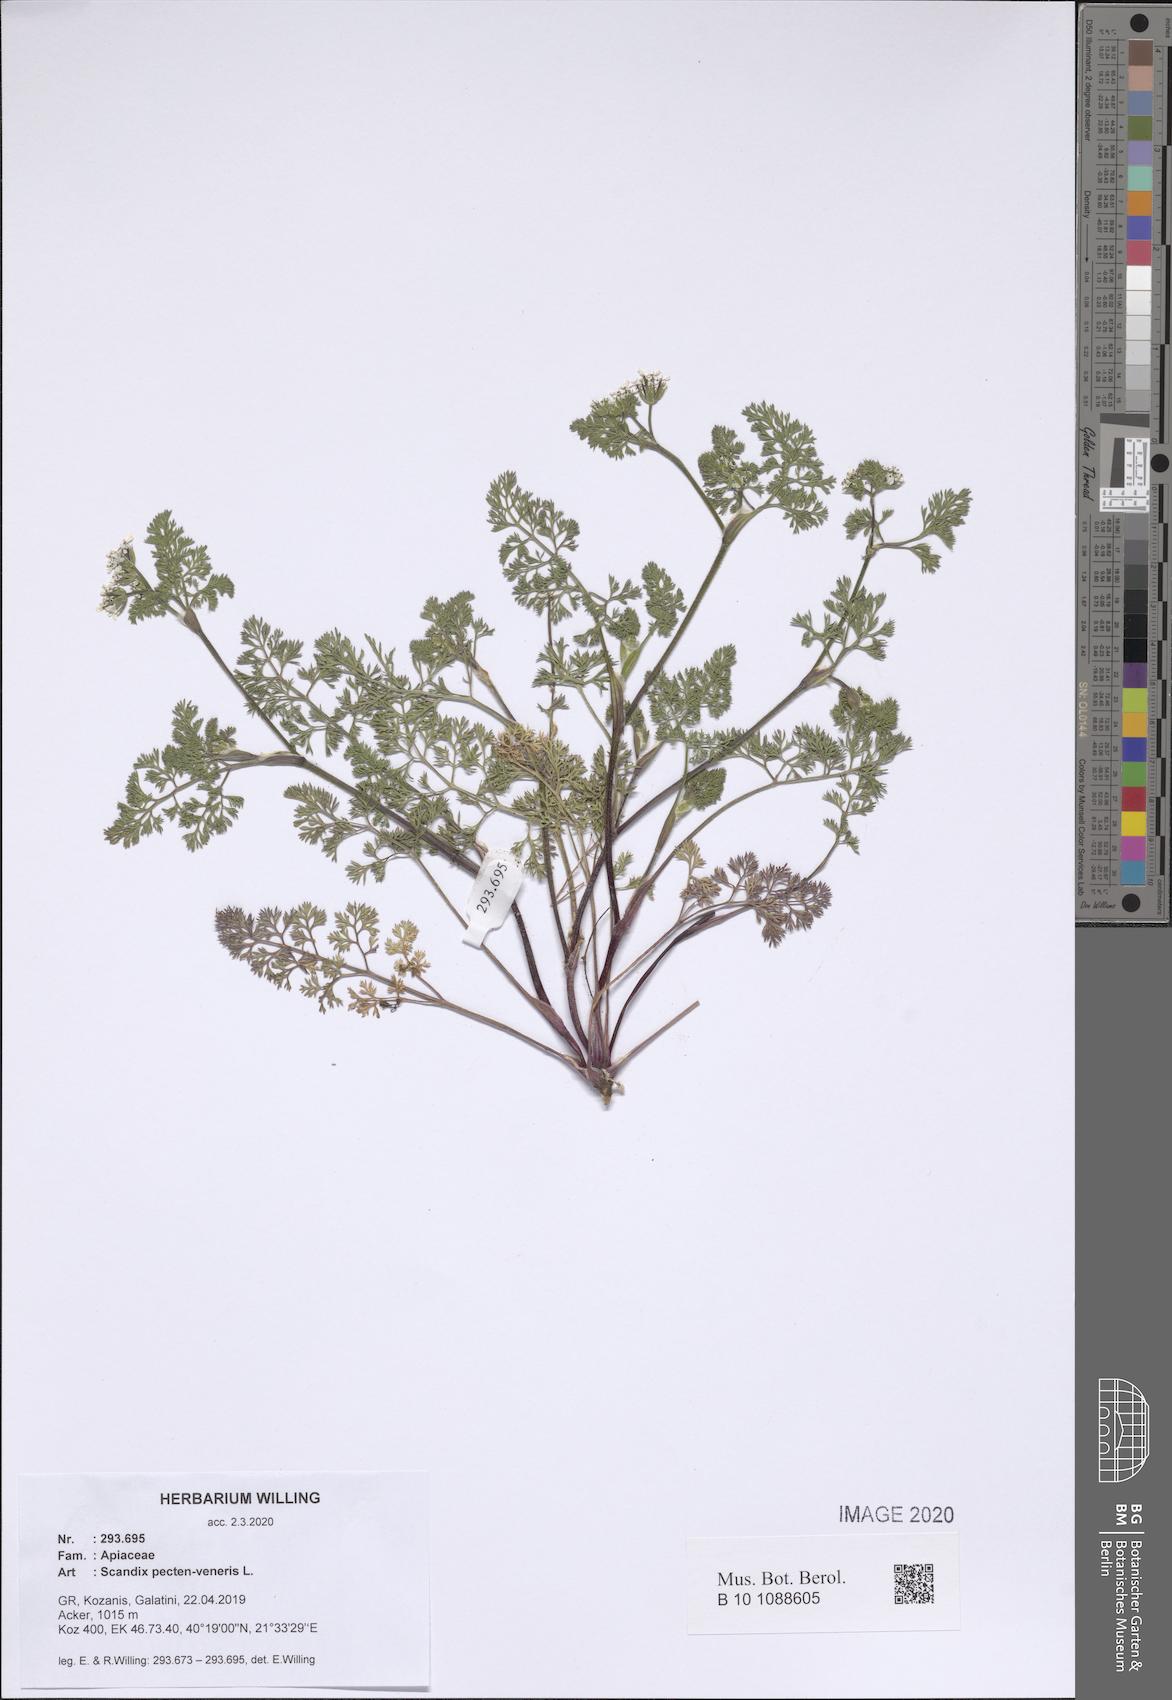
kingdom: Plantae
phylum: Tracheophyta
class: Magnoliopsida
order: Apiales
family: Apiaceae
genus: Scandix
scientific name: Scandix pecten-veneris
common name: Shepherd's-needle
